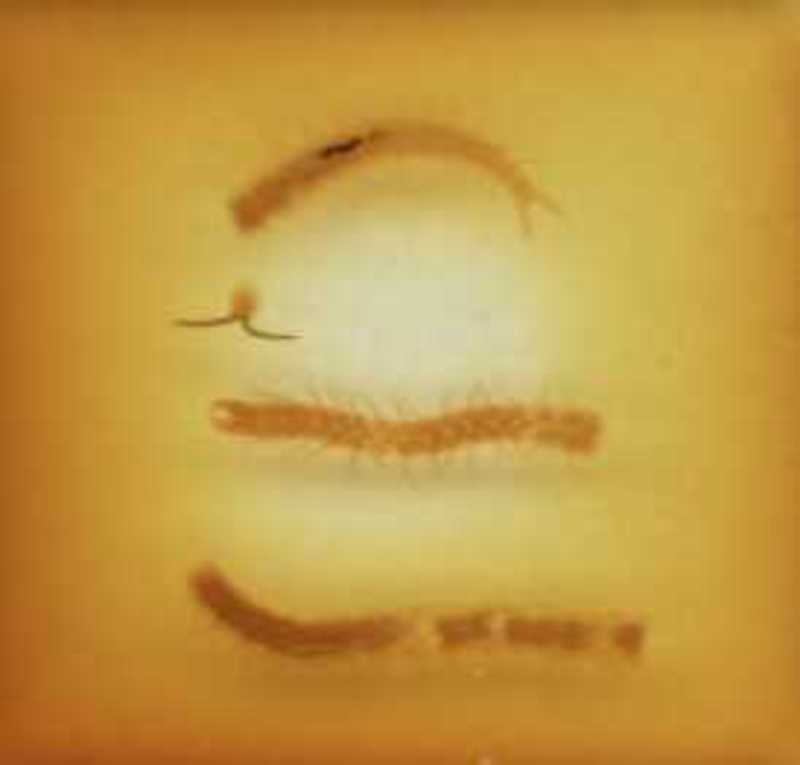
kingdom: Animalia
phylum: Arthropoda
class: Chilopoda
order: Geophilomorpha
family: Schendylidae
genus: Schendyla
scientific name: Schendyla carniolensis
